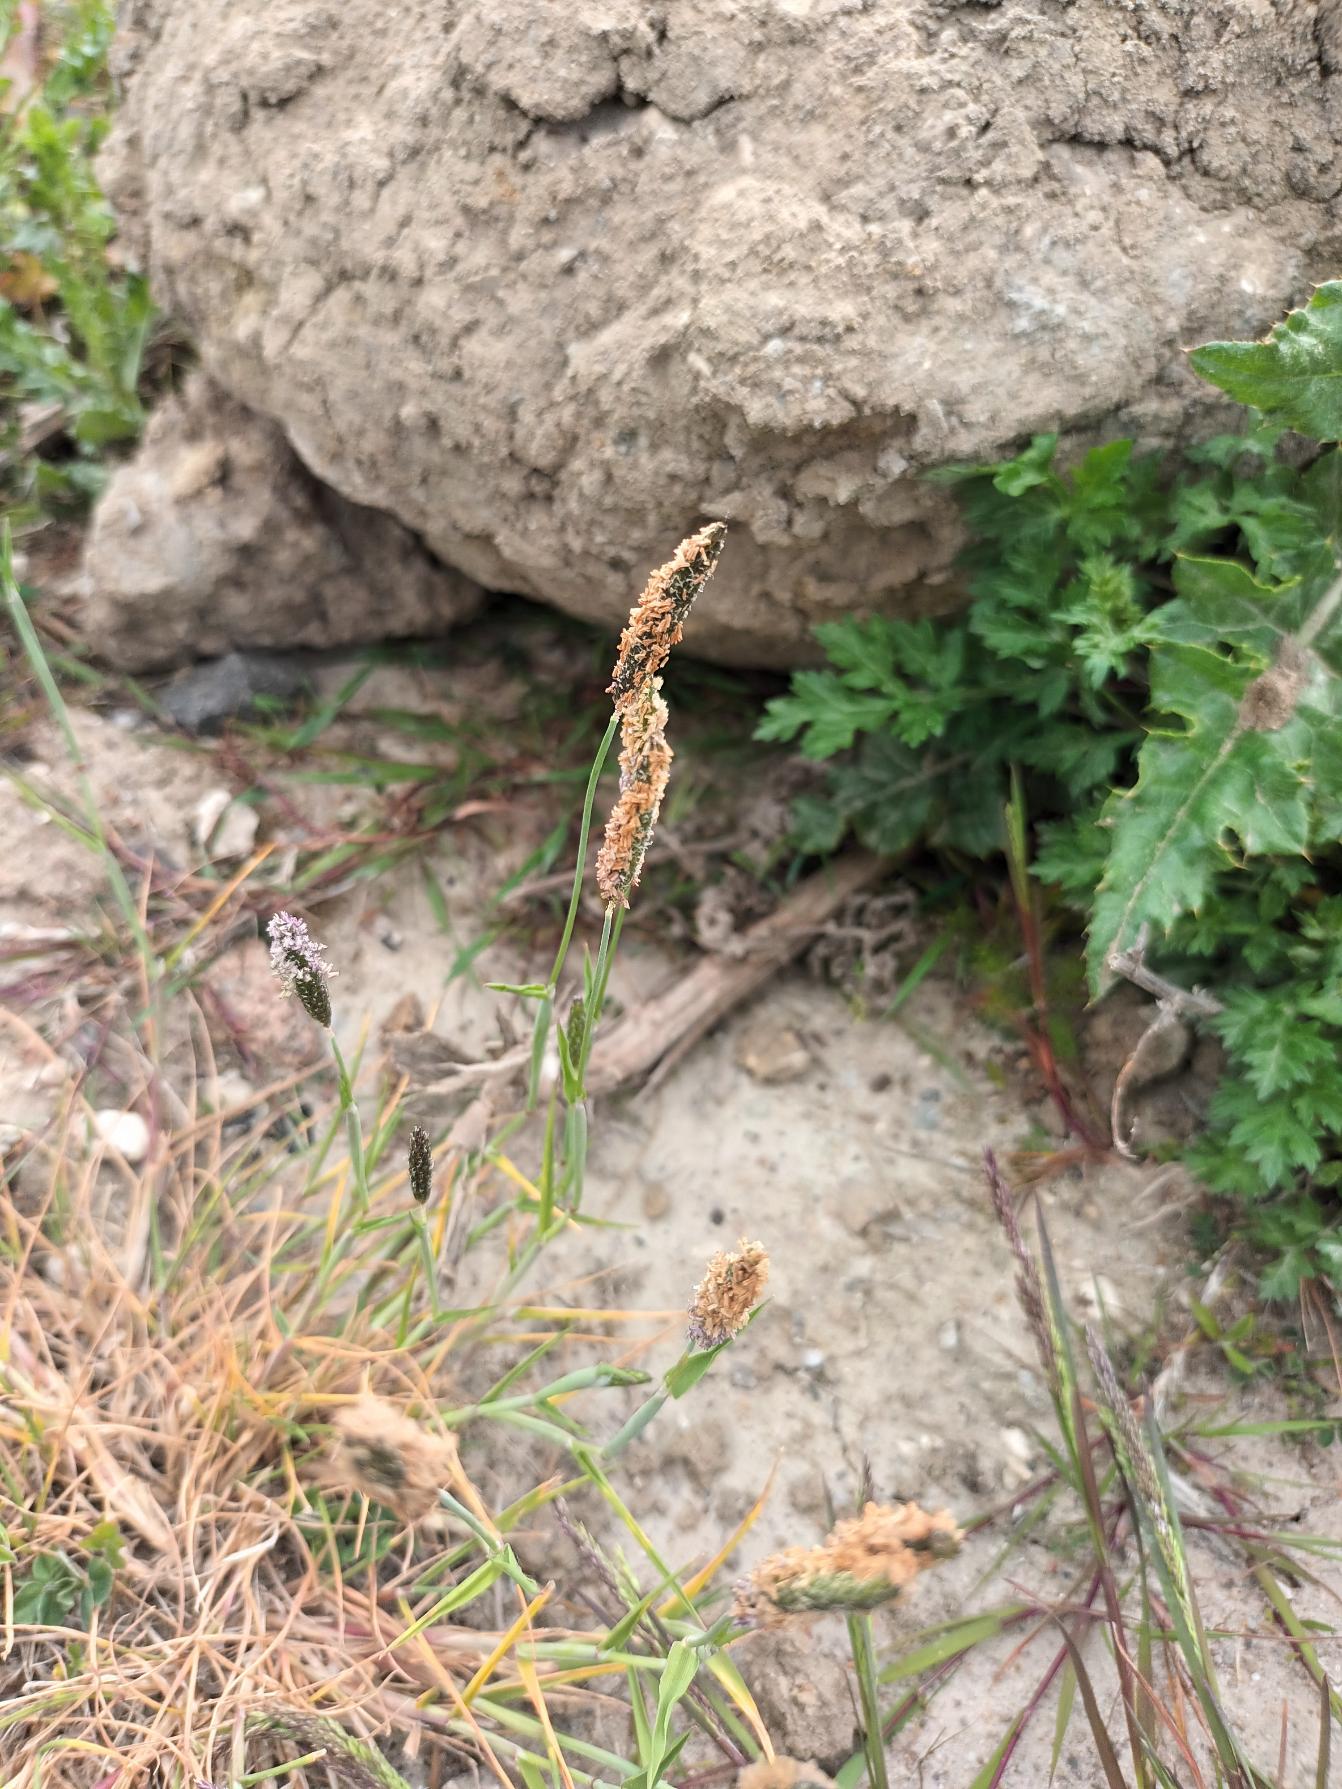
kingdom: Plantae
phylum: Tracheophyta
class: Liliopsida
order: Poales
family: Poaceae
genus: Alopecurus
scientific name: Alopecurus geniculatus
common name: Knæbøjet rævehale
